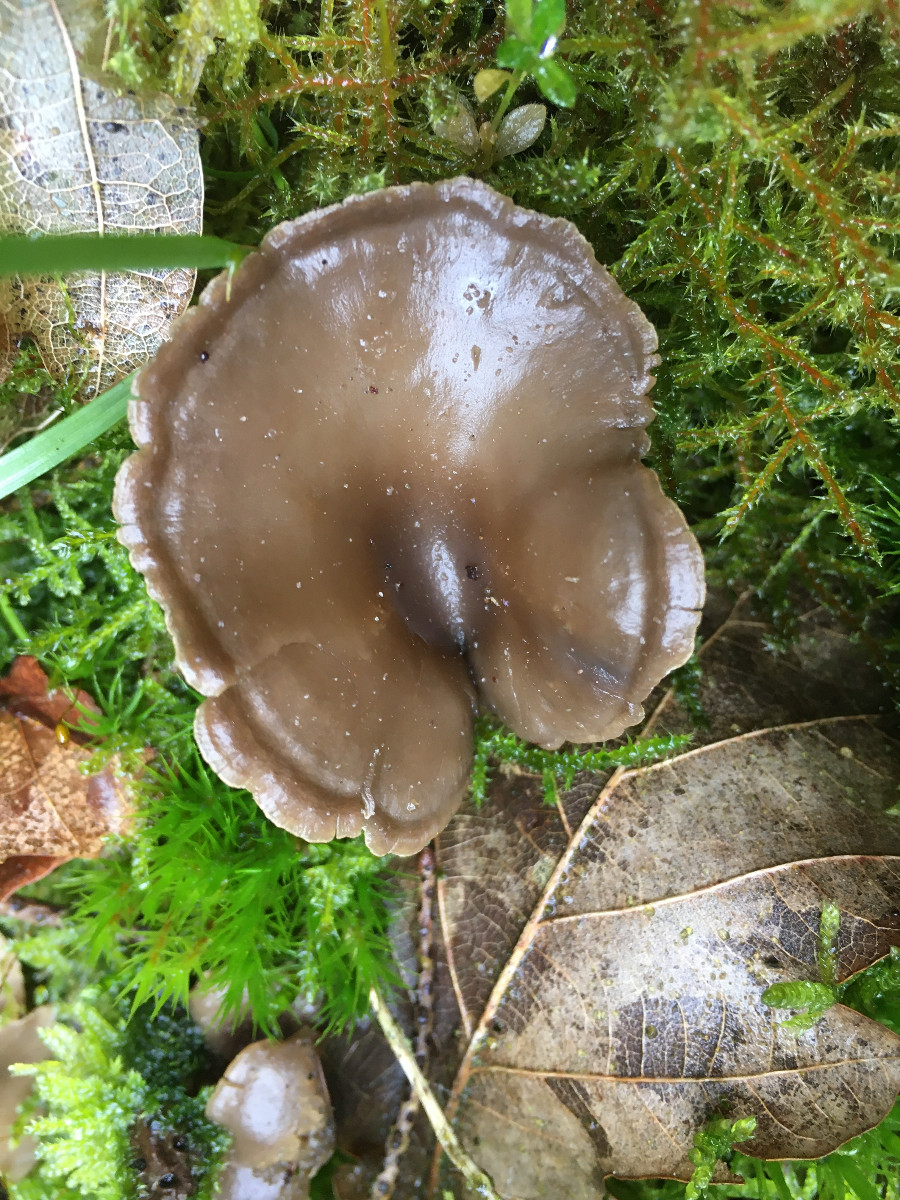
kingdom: Fungi
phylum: Basidiomycota
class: Agaricomycetes
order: Agaricales
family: Tricholomataceae
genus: Clitocybe
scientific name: Clitocybe
